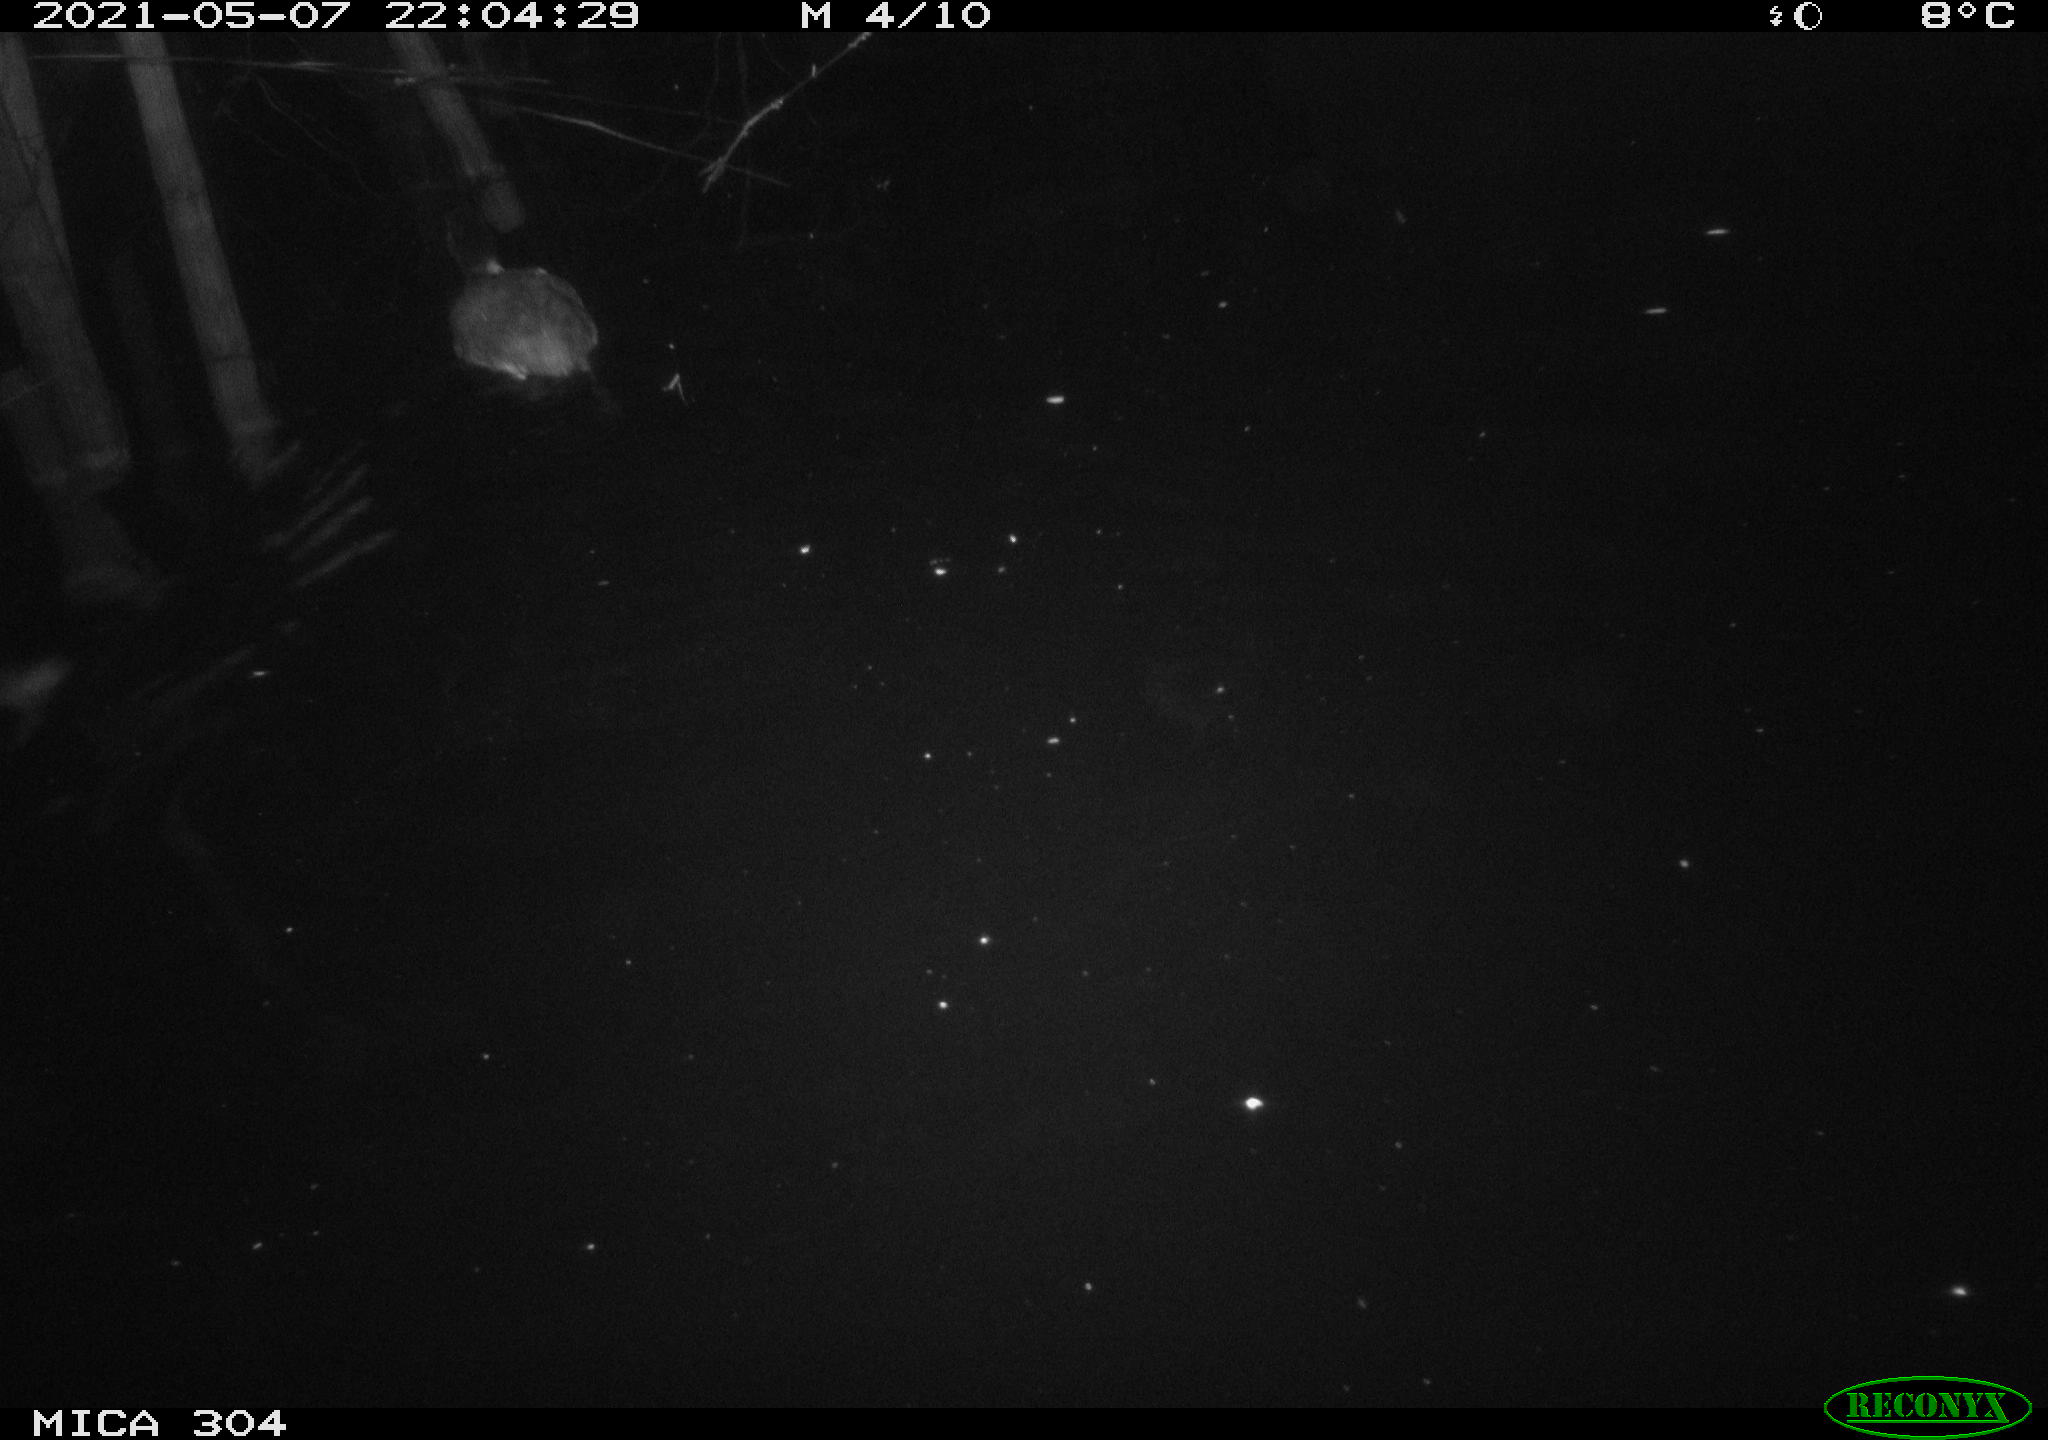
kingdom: Animalia
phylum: Chordata
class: Aves
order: Gruiformes
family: Rallidae
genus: Fulica
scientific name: Fulica atra
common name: Eurasian coot
